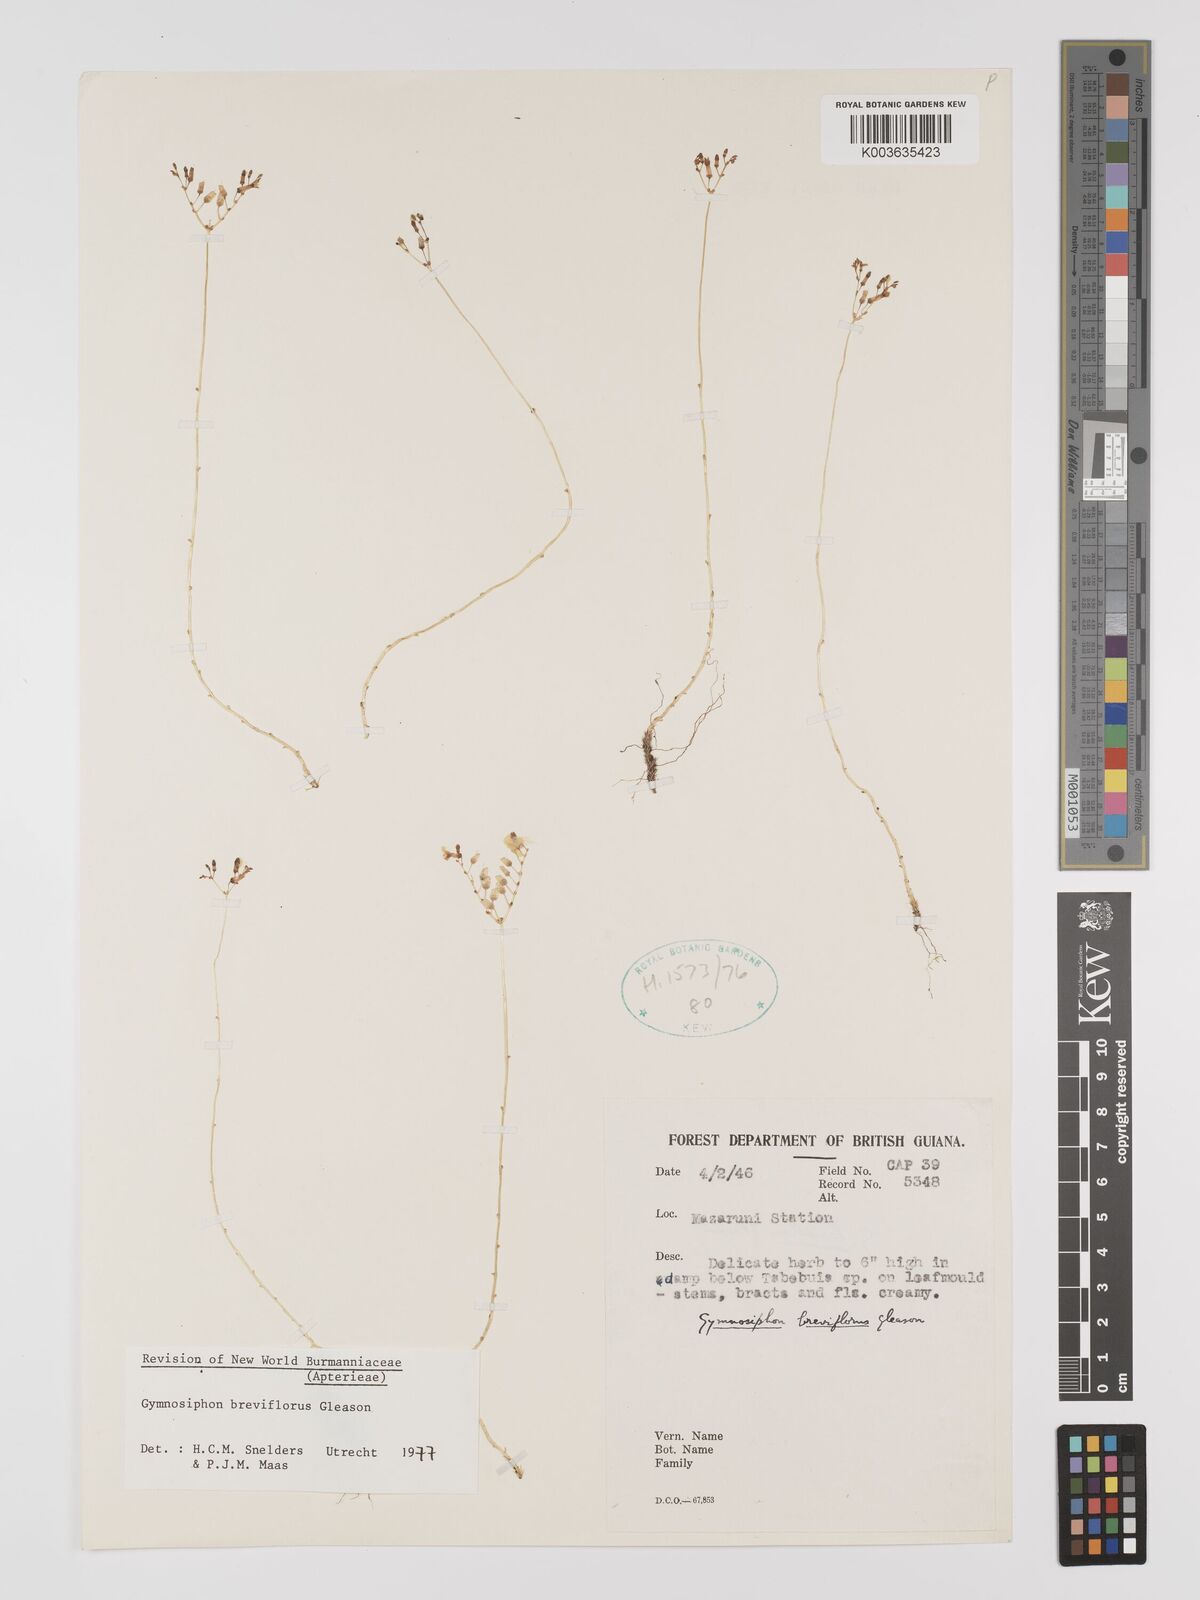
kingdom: Plantae
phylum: Tracheophyta
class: Liliopsida
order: Dioscoreales
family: Burmanniaceae
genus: Gymnosiphon
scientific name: Gymnosiphon breviflorus
